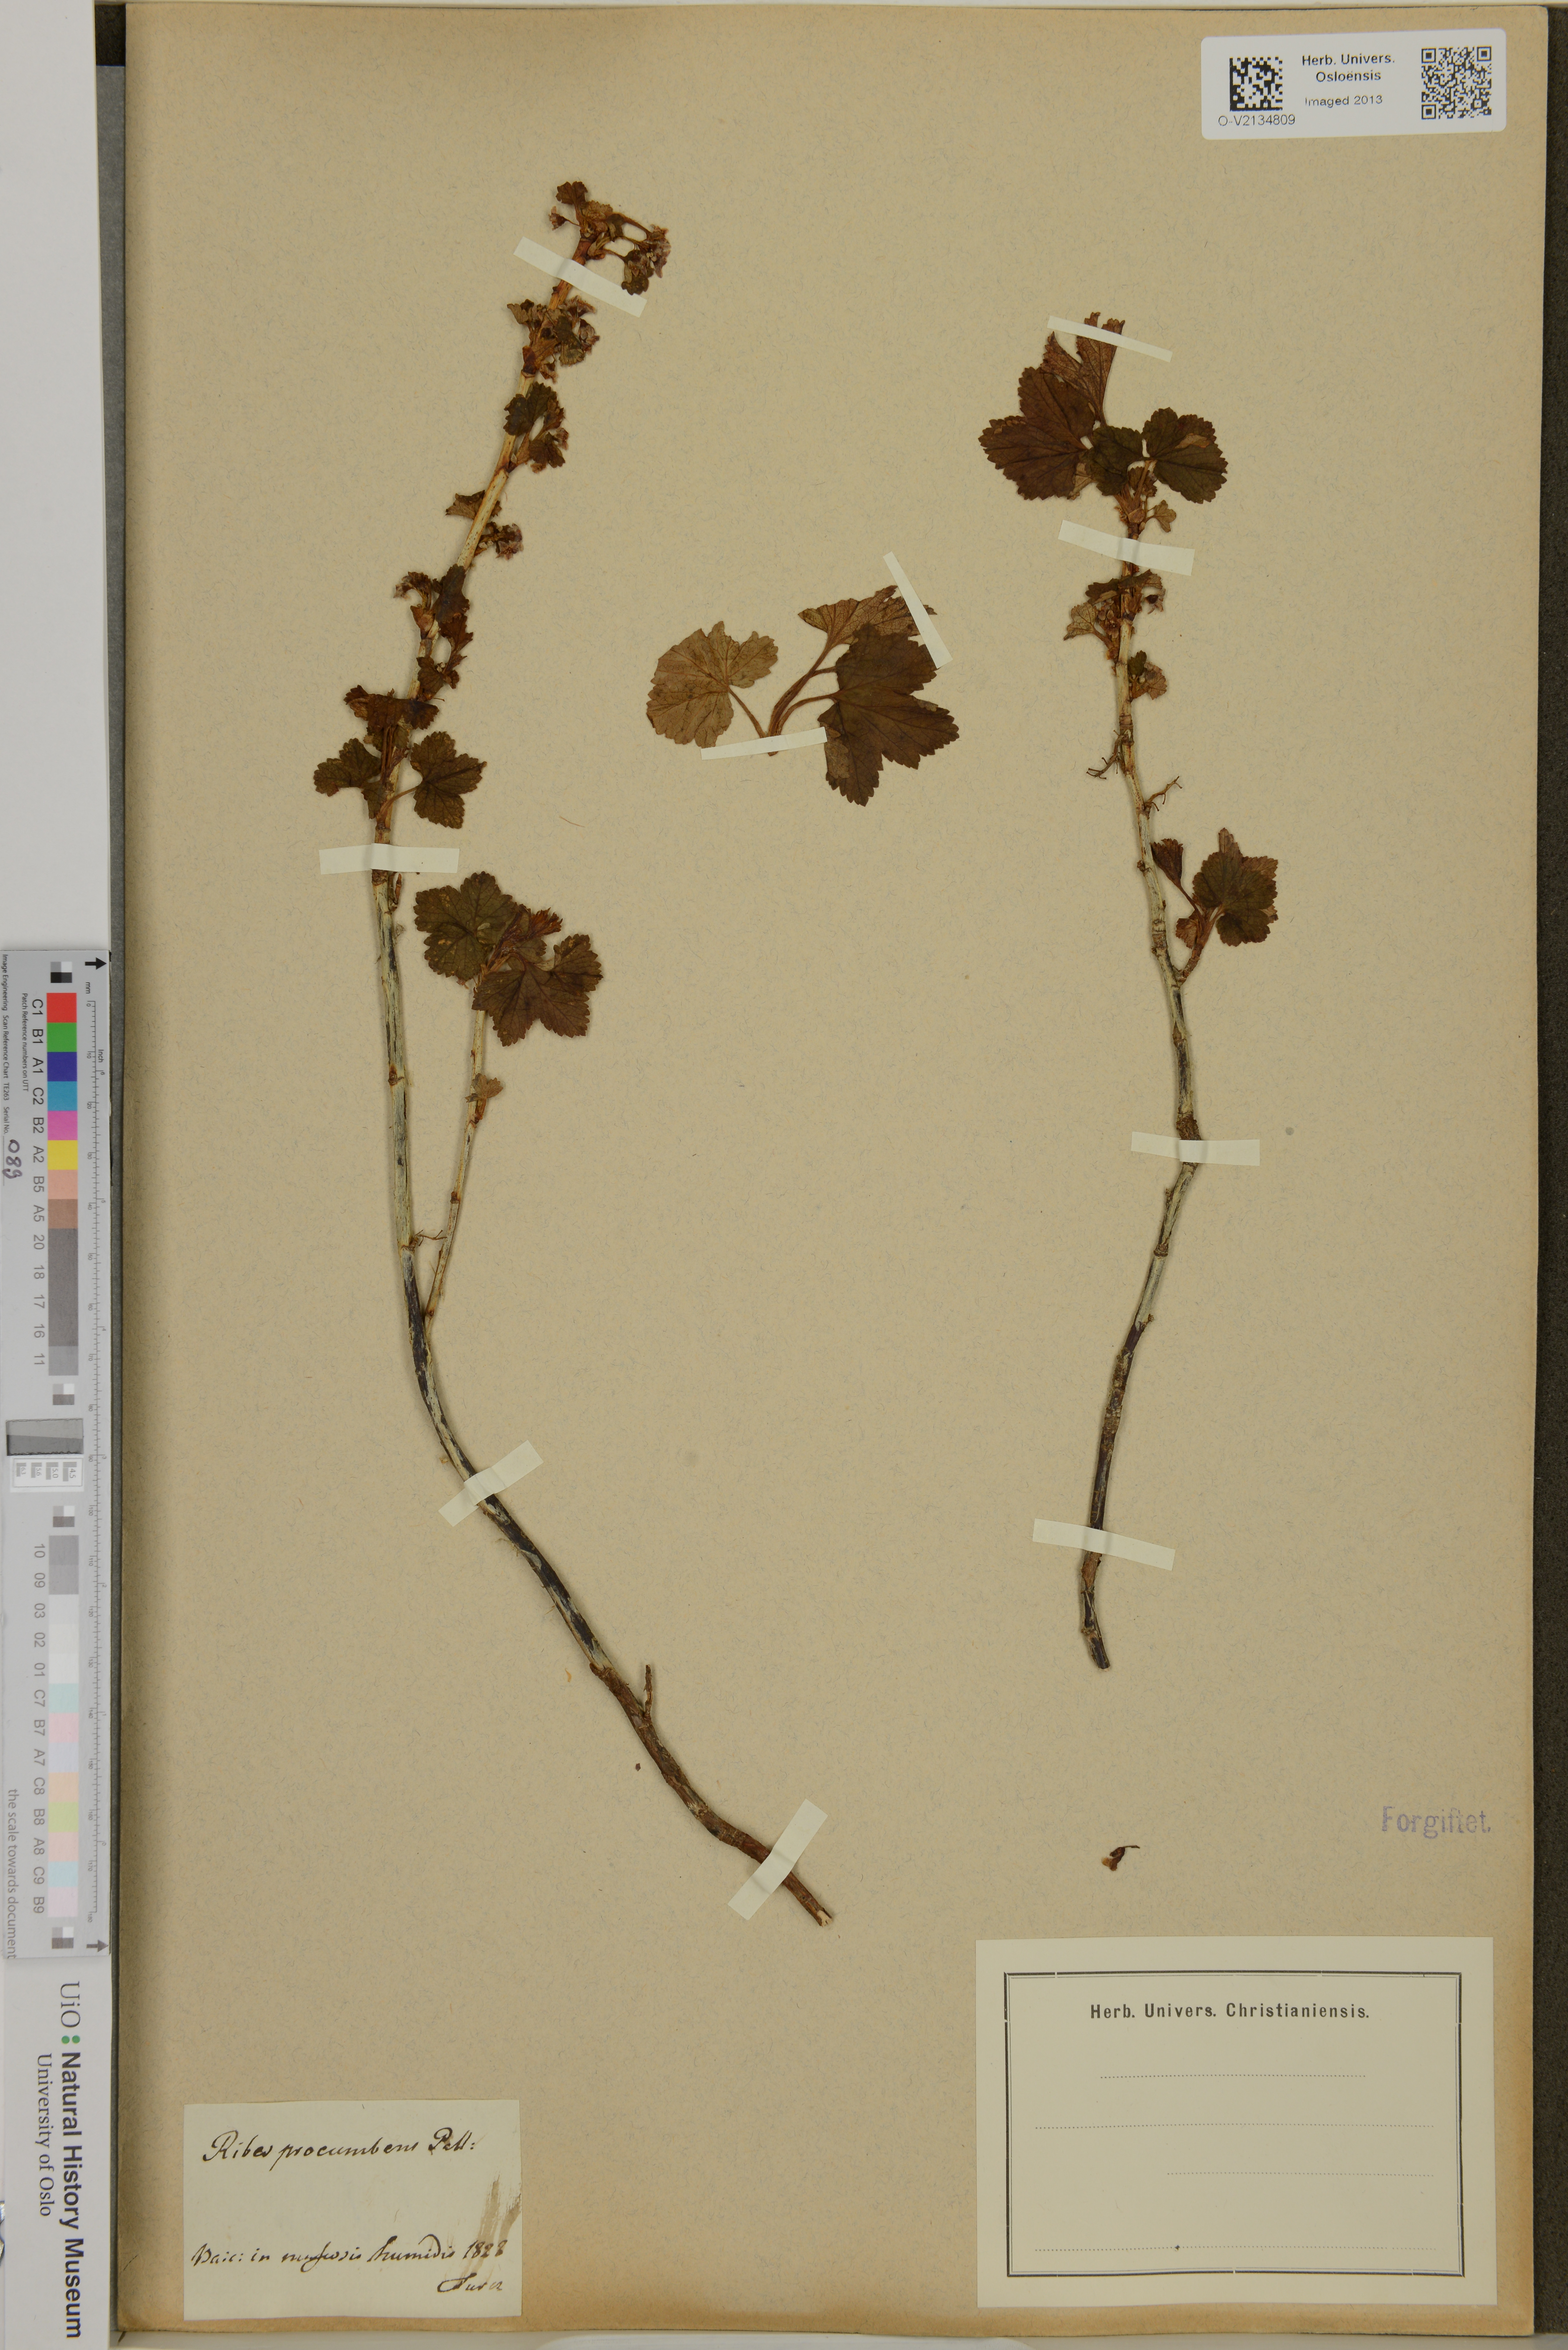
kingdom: Plantae
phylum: Tracheophyta
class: Magnoliopsida
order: Saxifragales
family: Grossulariaceae
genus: Ribes
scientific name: Ribes procumbens
